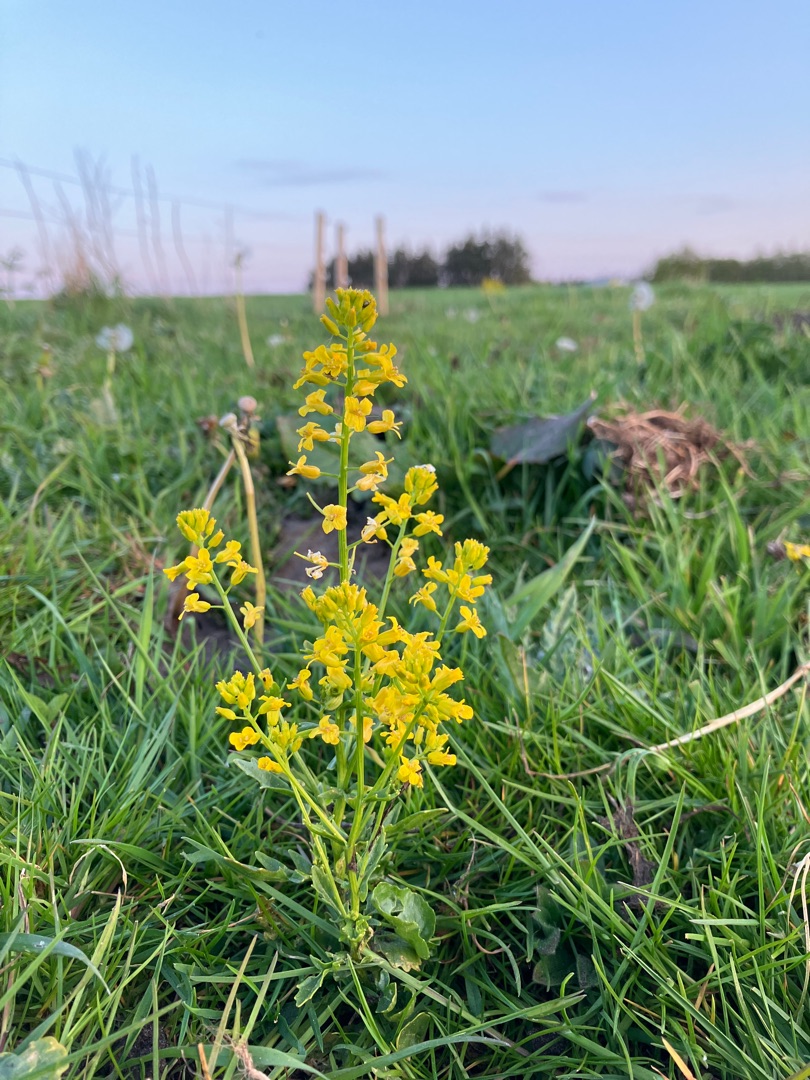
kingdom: Plantae
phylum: Tracheophyta
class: Magnoliopsida
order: Brassicales
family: Brassicaceae
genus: Barbarea
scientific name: Barbarea vulgaris
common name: Udspærret vinterkarse
